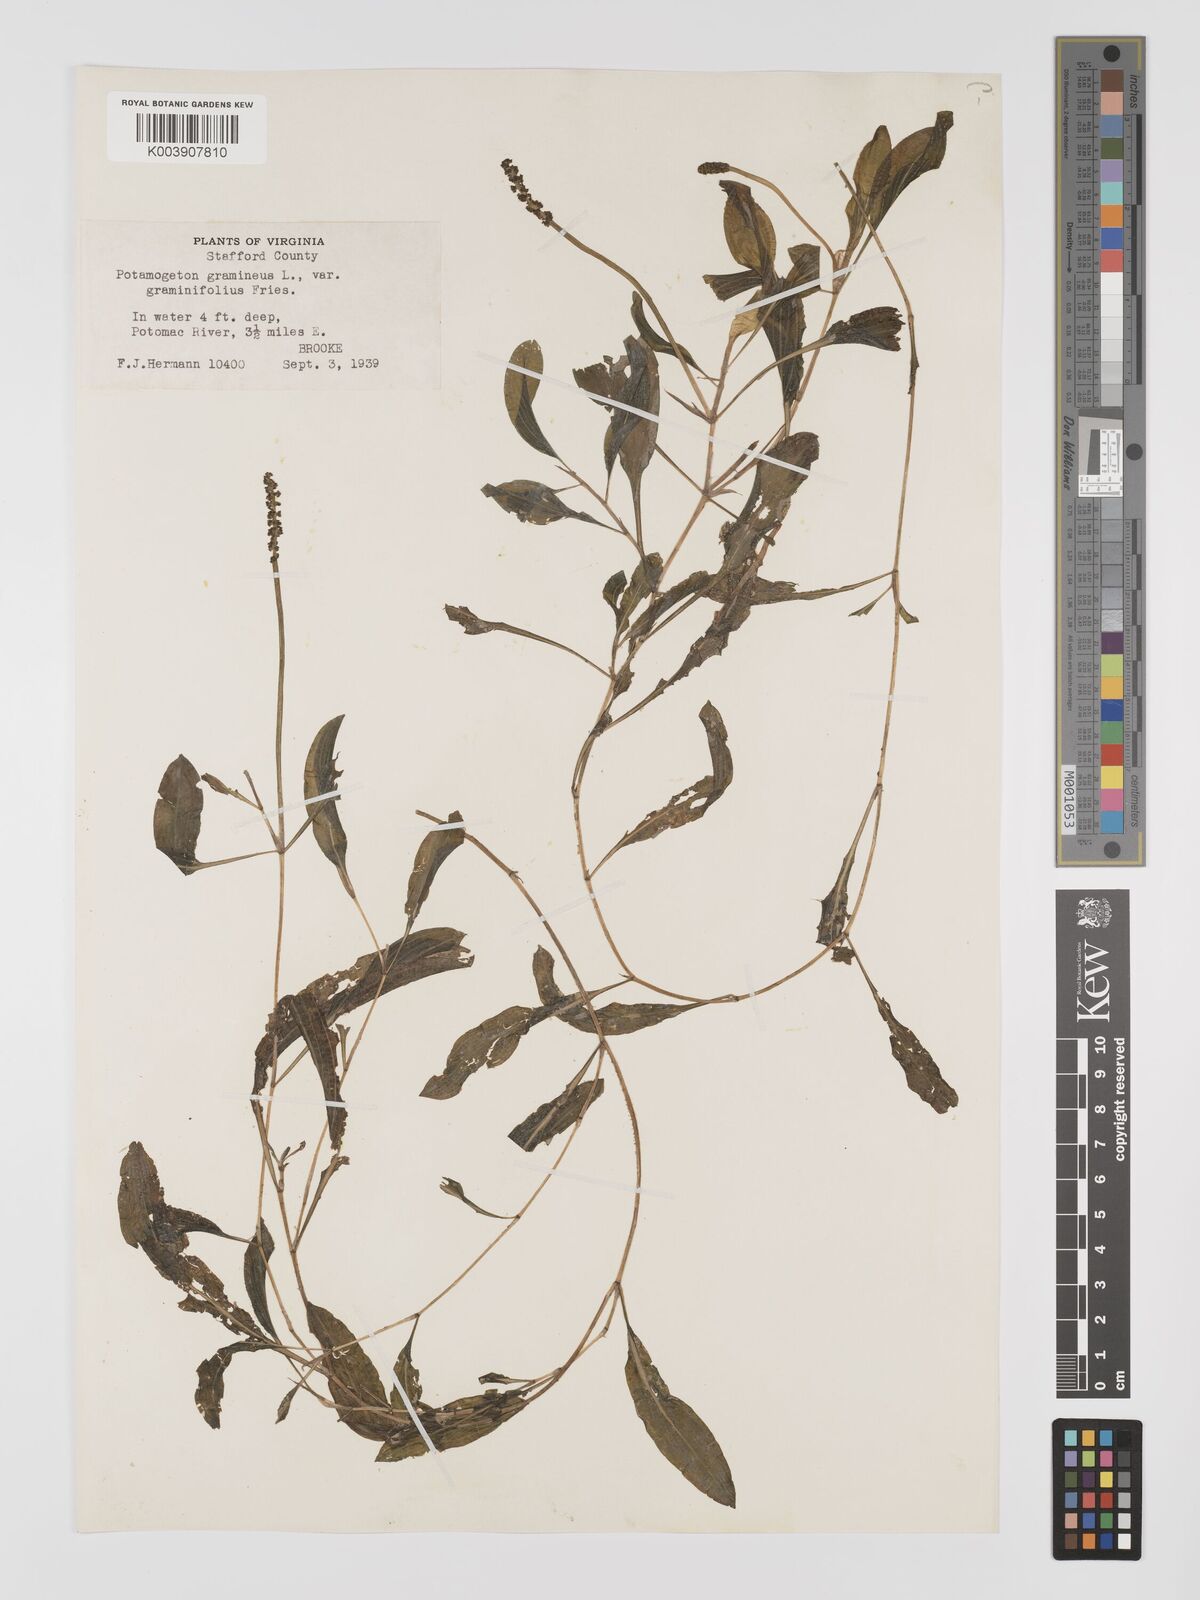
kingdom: Plantae
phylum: Tracheophyta
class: Liliopsida
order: Alismatales
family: Potamogetonaceae
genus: Potamogeton
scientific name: Potamogeton gramineus
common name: Various-leaved pondweed
